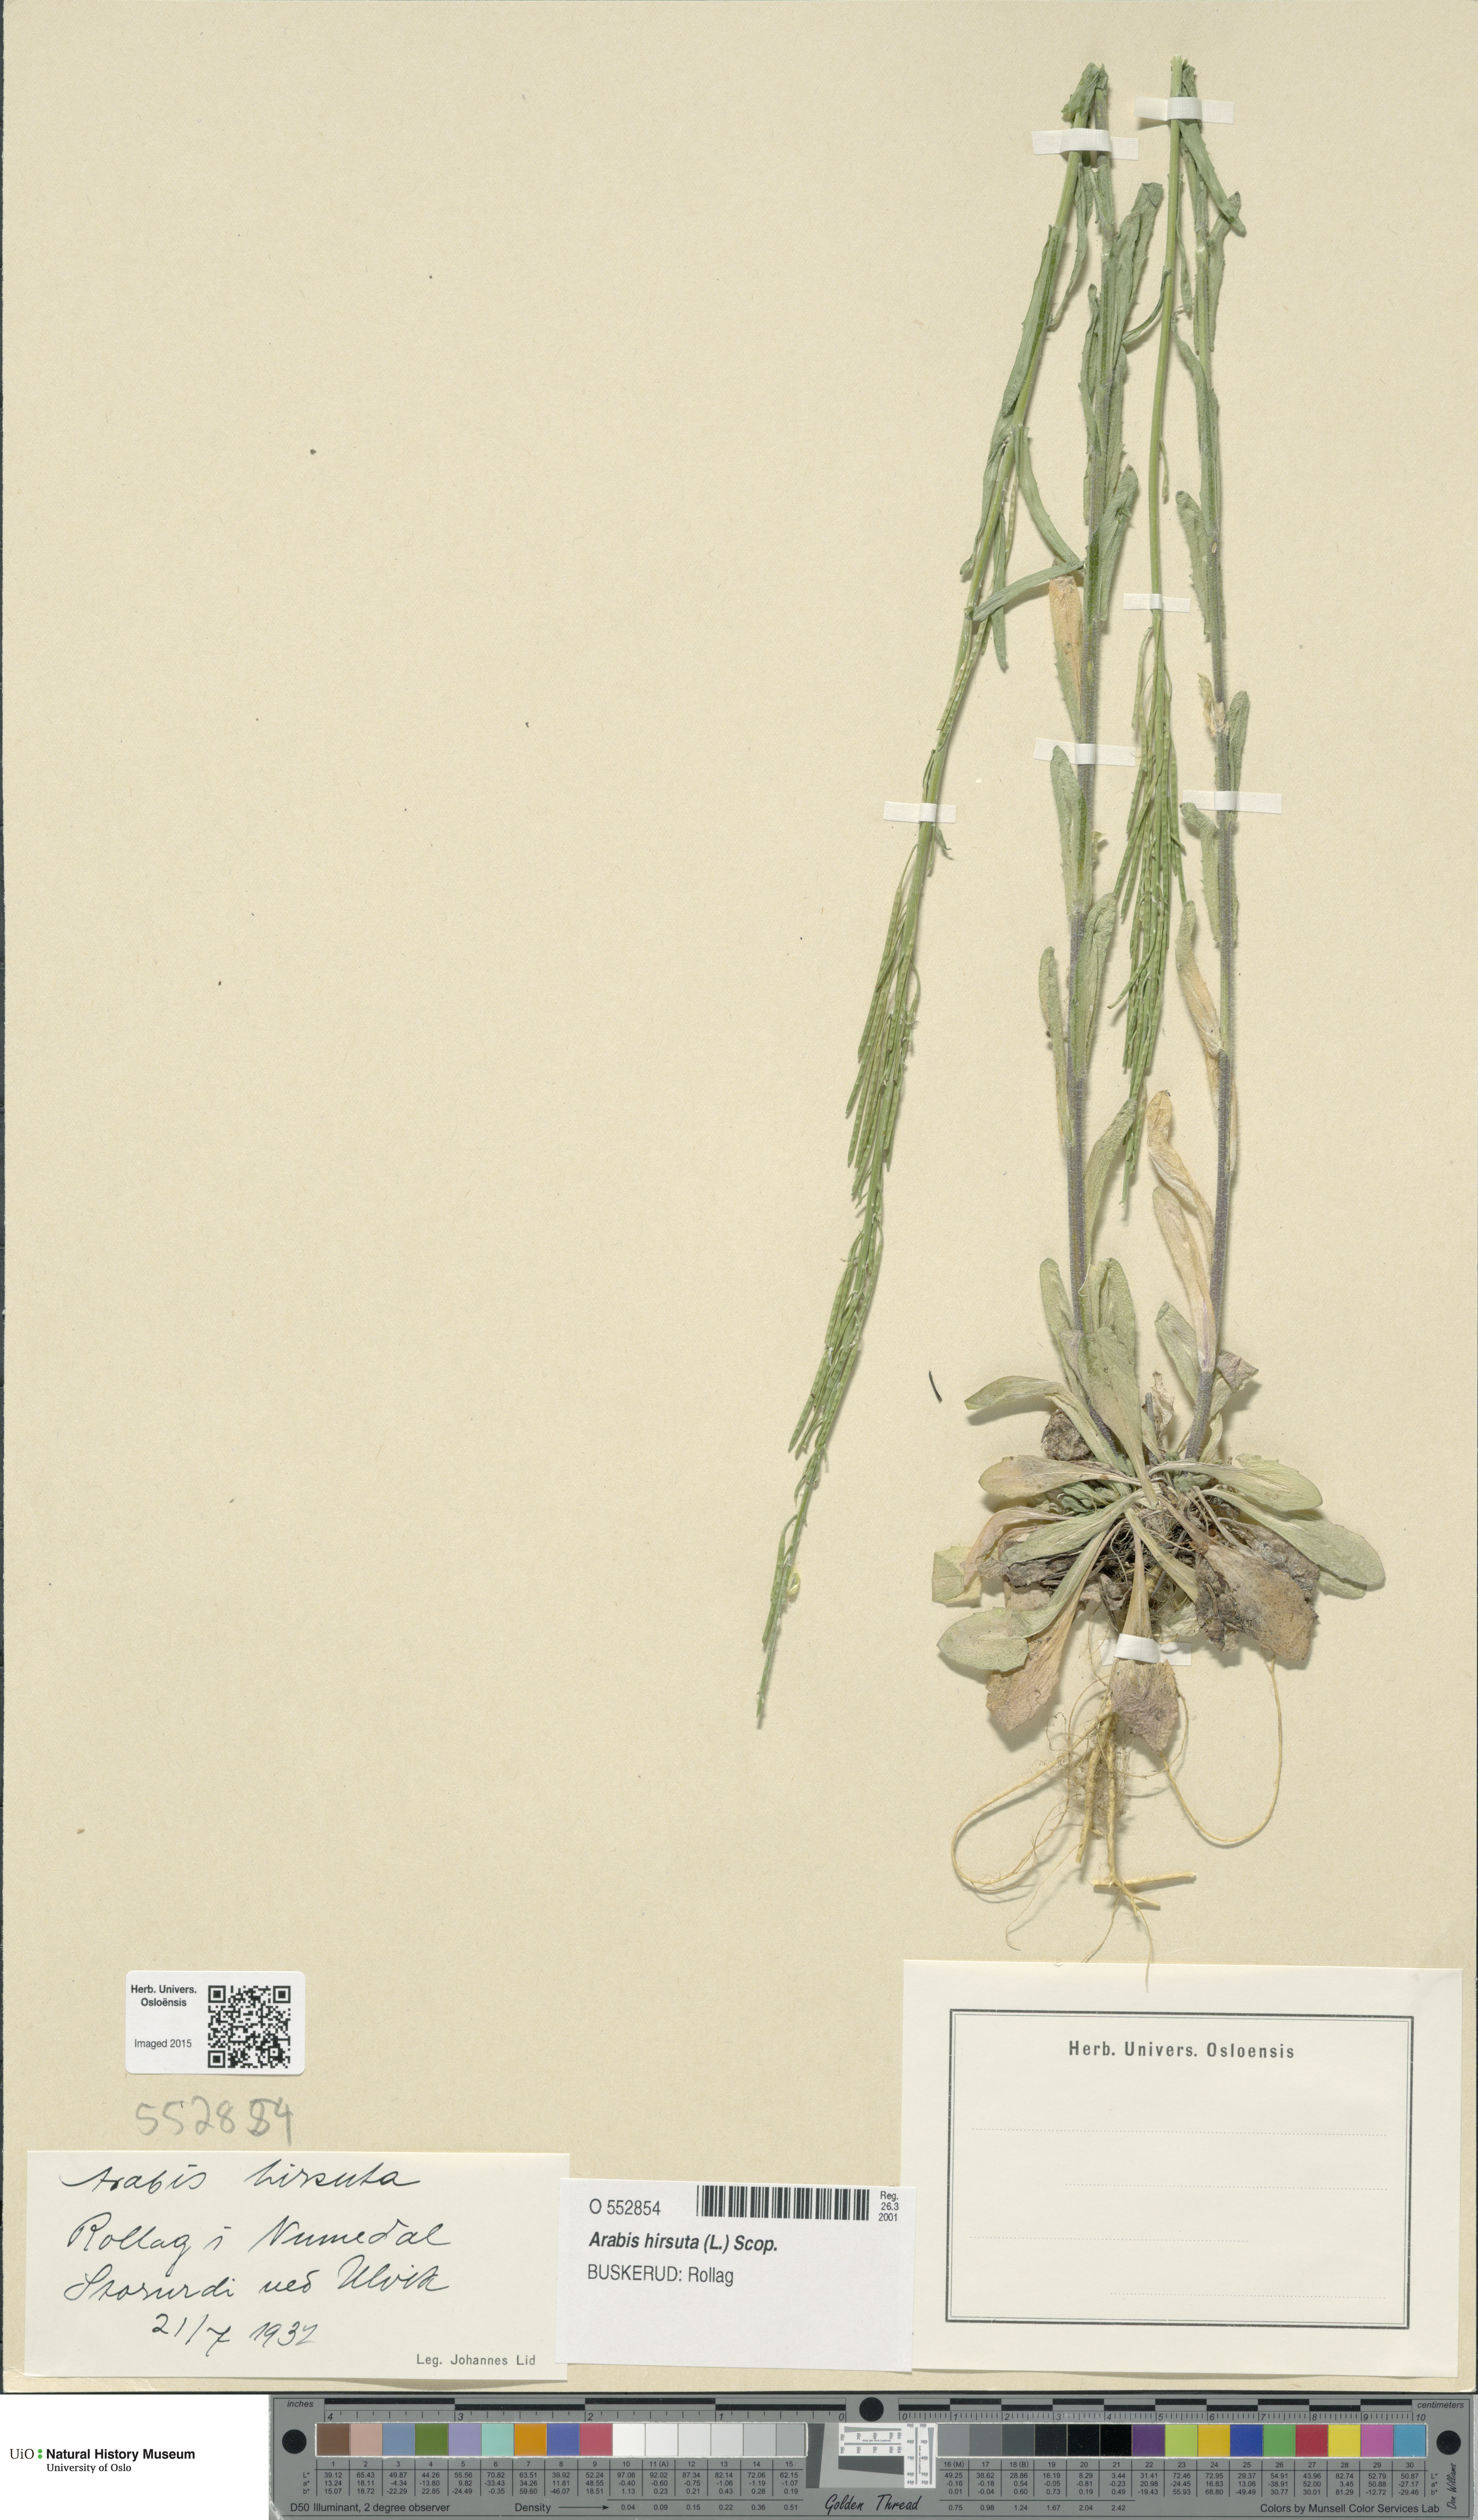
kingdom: Plantae
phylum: Tracheophyta
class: Magnoliopsida
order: Brassicales
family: Brassicaceae
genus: Arabis
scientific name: Arabis hirsuta
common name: Hairy rock-cress
